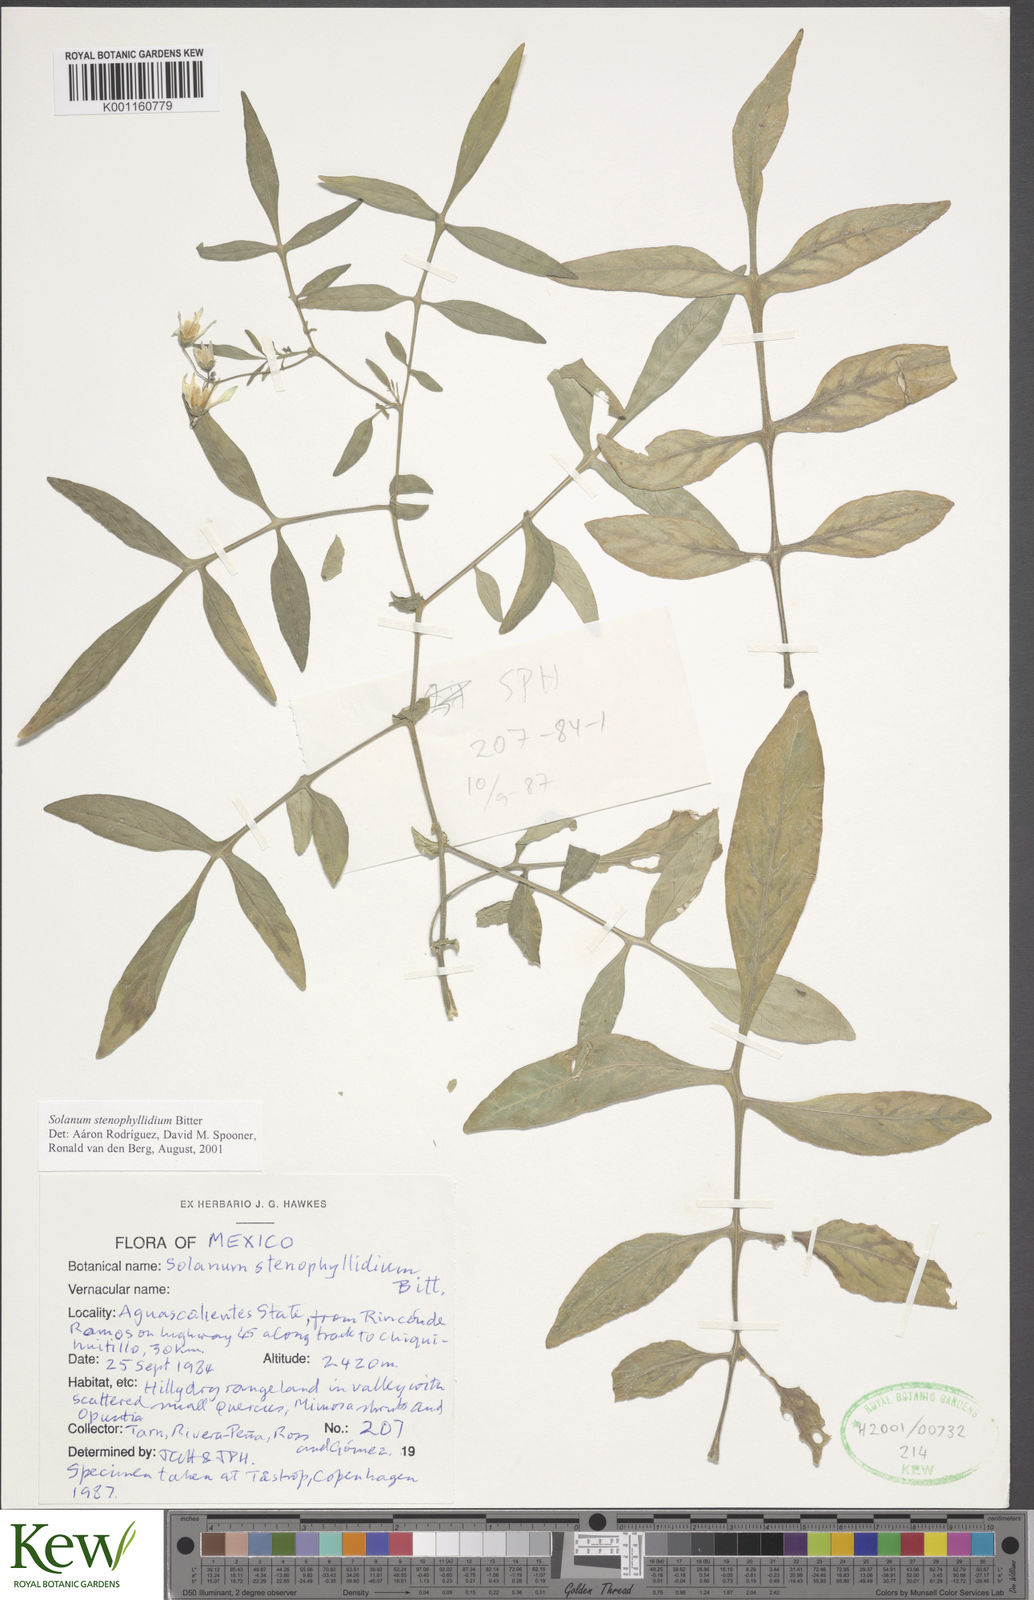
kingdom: Plantae
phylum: Tracheophyta
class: Magnoliopsida
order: Solanales
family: Solanaceae
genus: Solanum
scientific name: Solanum stenophyllidium
